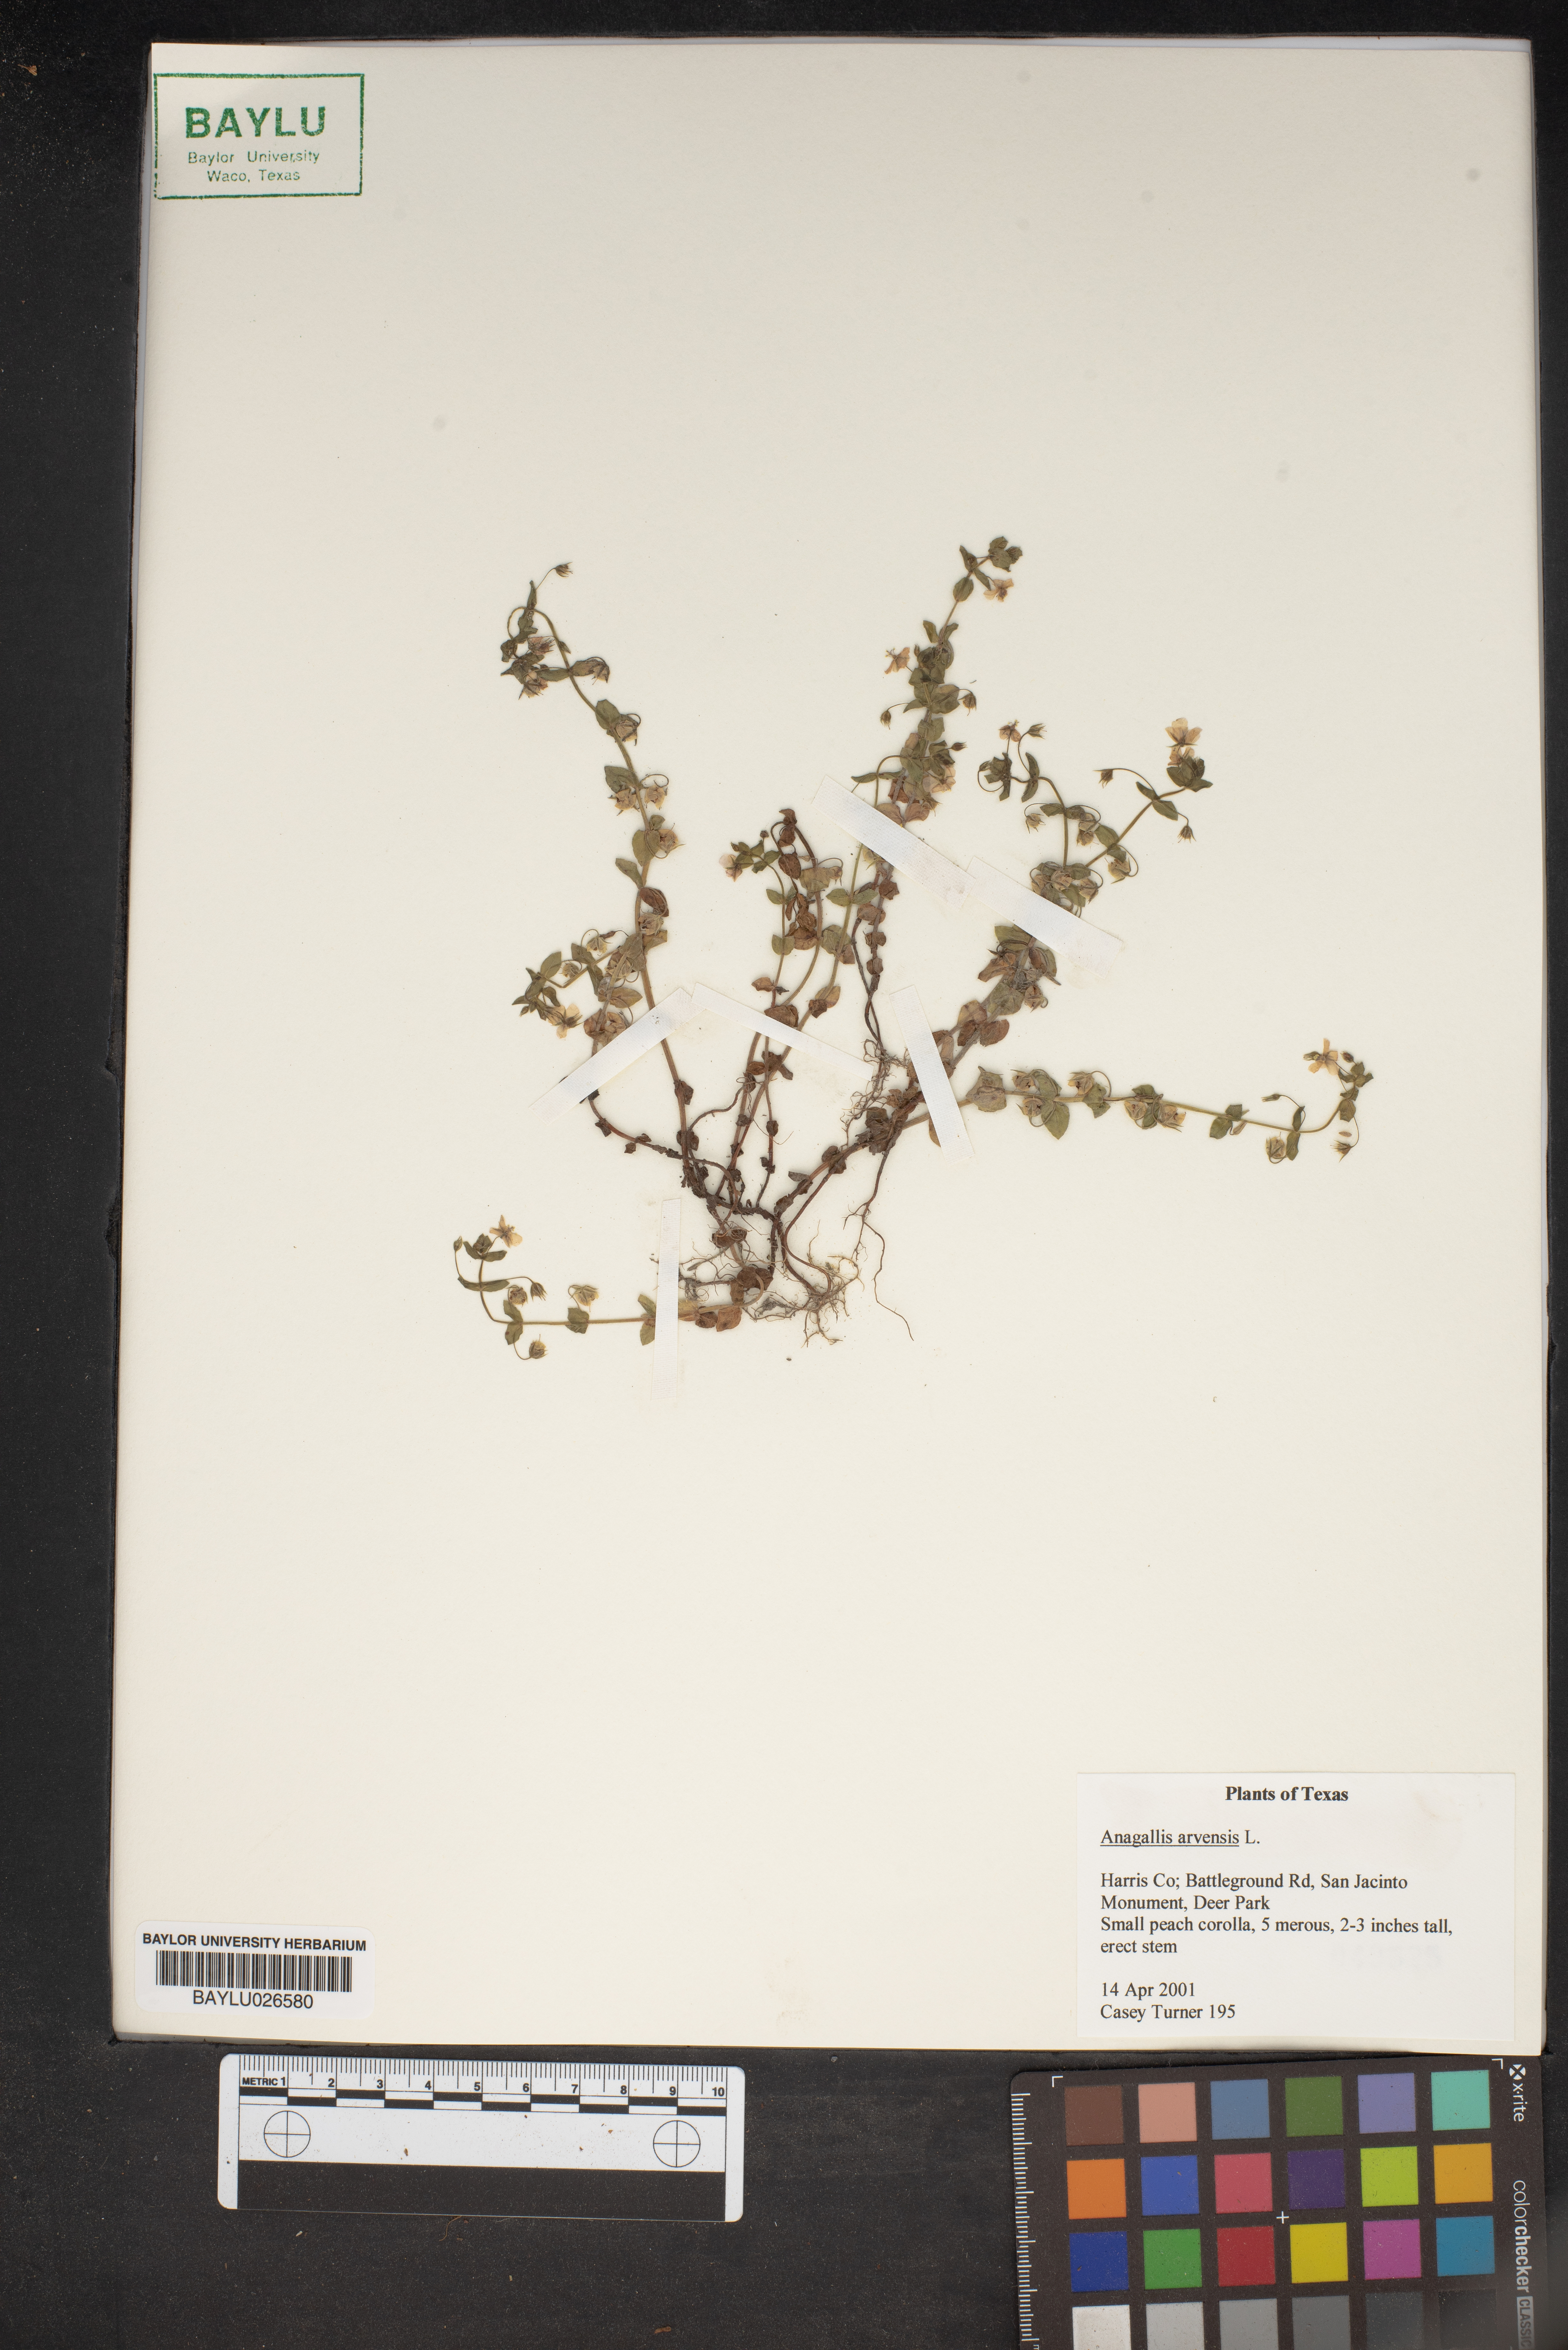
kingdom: Plantae
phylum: Tracheophyta
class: Magnoliopsida
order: Ericales
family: Primulaceae
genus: Lysimachia
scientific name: Lysimachia arvensis
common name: Scarlet pimpernel
